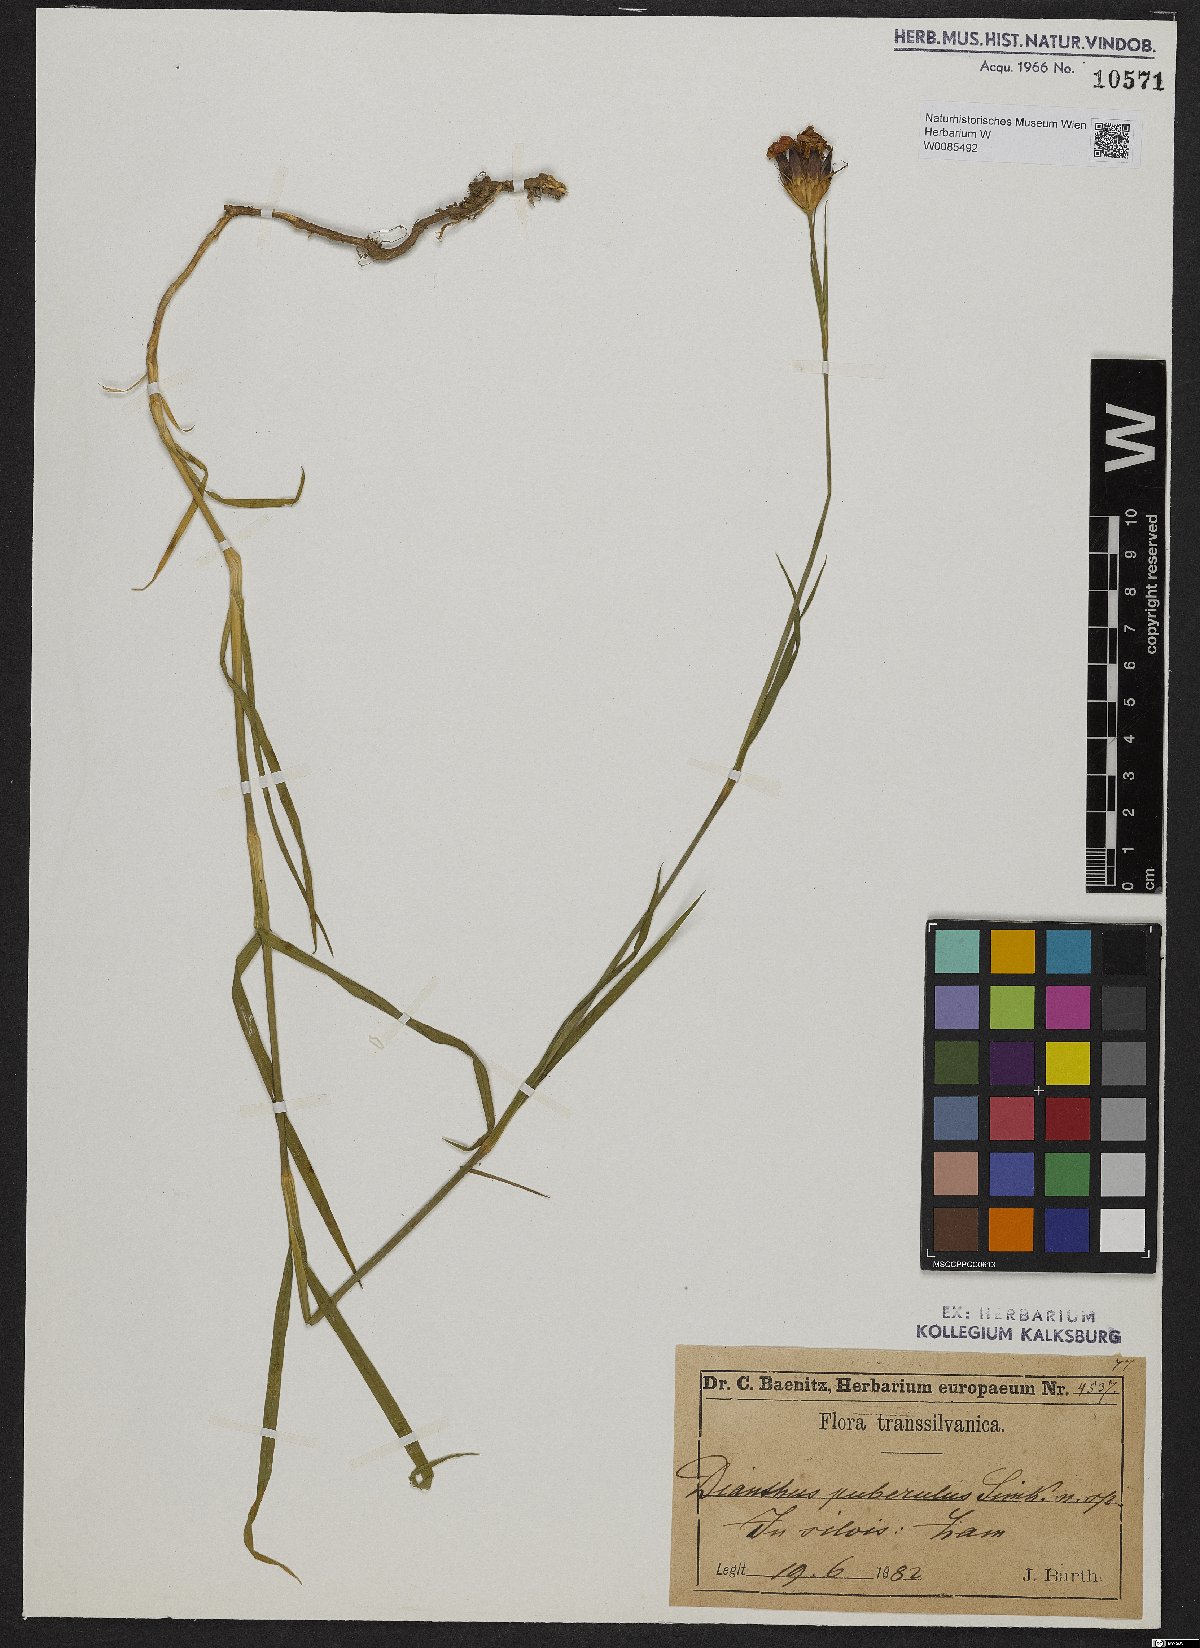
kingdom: Plantae
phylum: Tracheophyta
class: Magnoliopsida
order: Caryophyllales
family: Caryophyllaceae
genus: Dianthus
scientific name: Dianthus carthusianorum
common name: Carthusian pink
